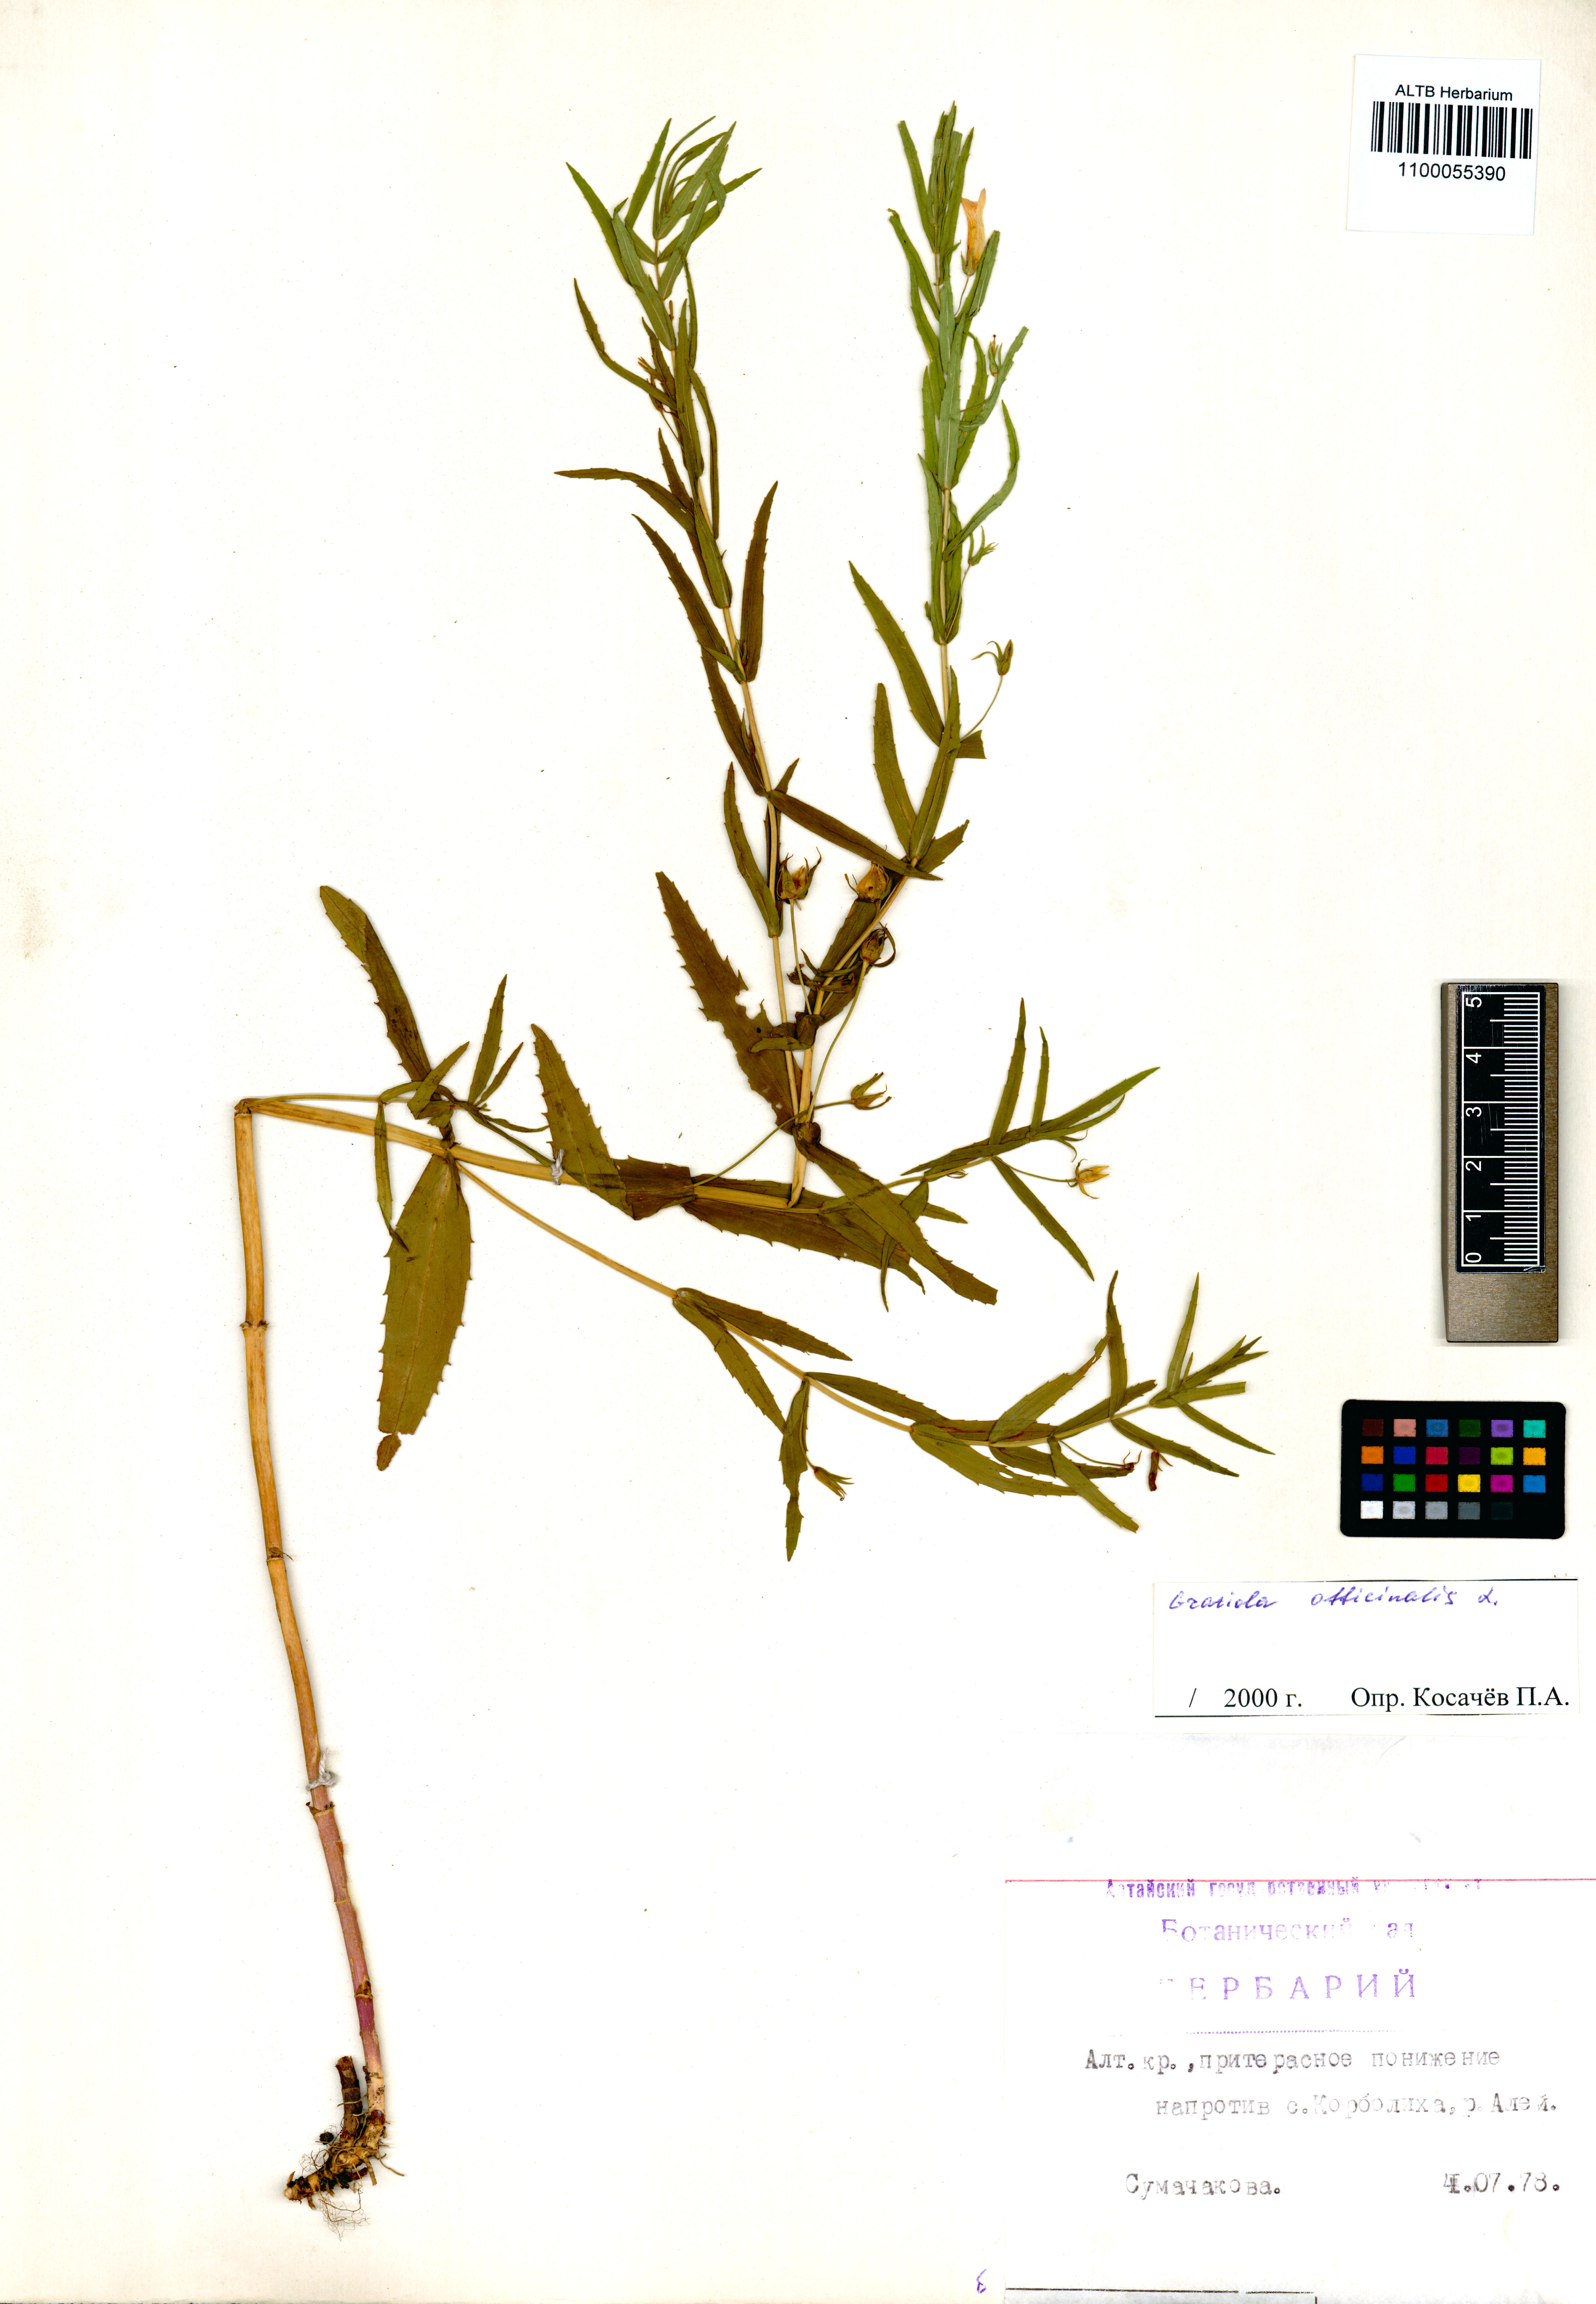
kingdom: Plantae
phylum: Tracheophyta
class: Magnoliopsida
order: Lamiales
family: Plantaginaceae
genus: Gratiola
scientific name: Gratiola officinalis
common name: Gratiola
